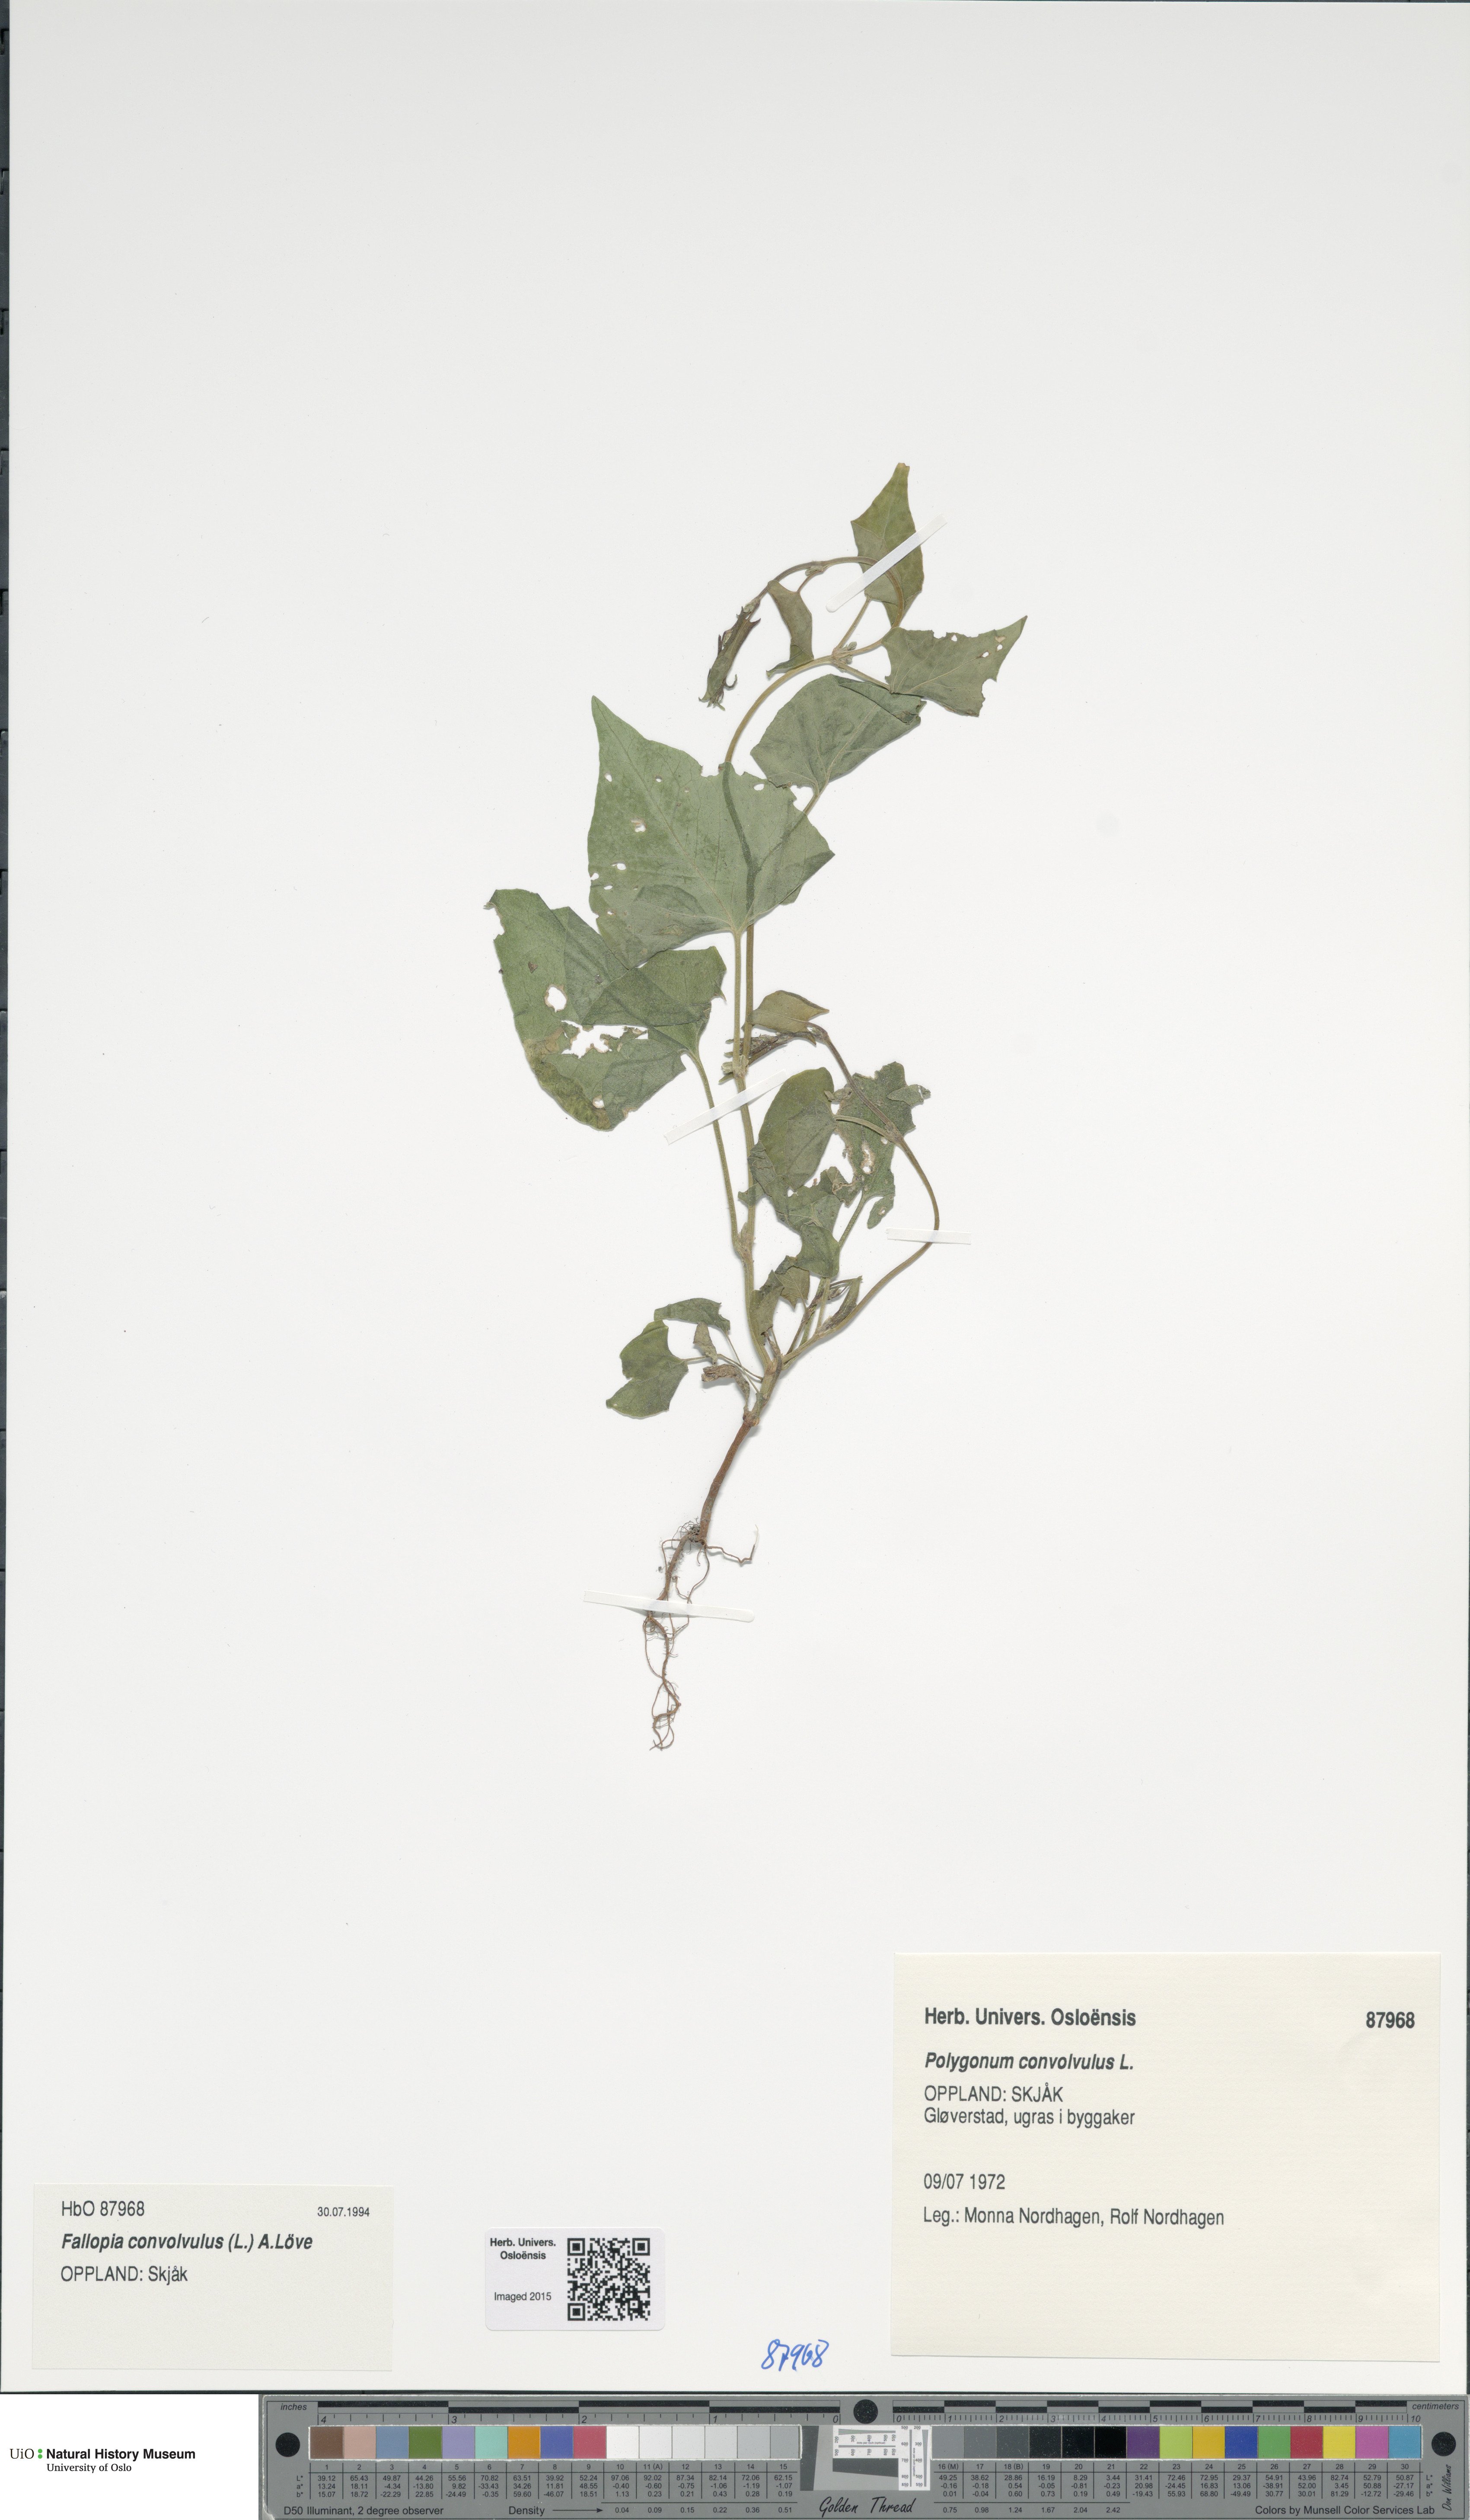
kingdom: Plantae
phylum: Tracheophyta
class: Magnoliopsida
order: Caryophyllales
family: Polygonaceae
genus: Fallopia
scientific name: Fallopia convolvulus
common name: Black bindweed
